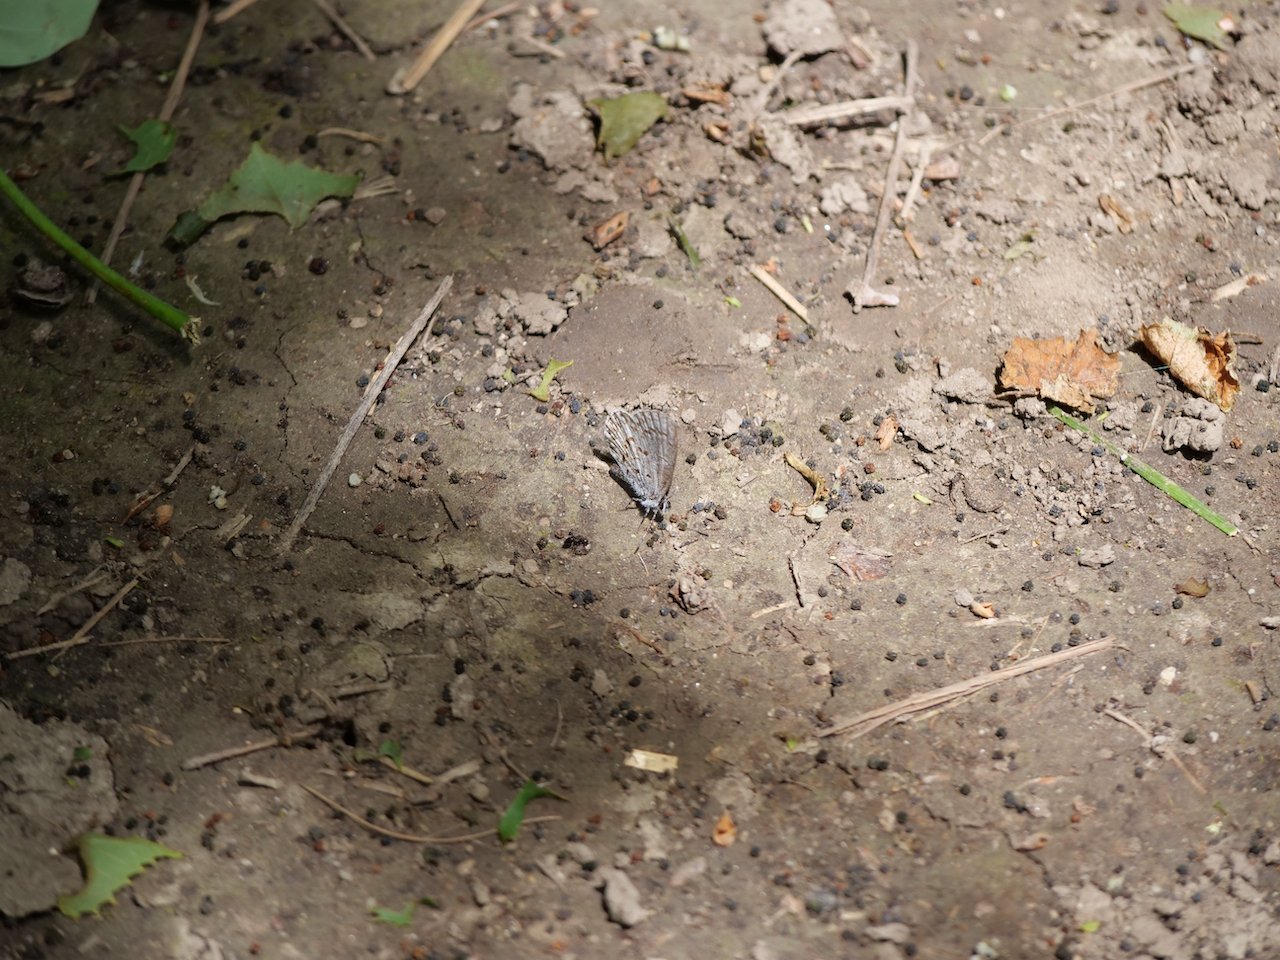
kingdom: Animalia
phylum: Arthropoda
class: Insecta
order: Lepidoptera
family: Lycaenidae
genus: Celastrina
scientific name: Celastrina lucia
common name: Northern Spring Azure
